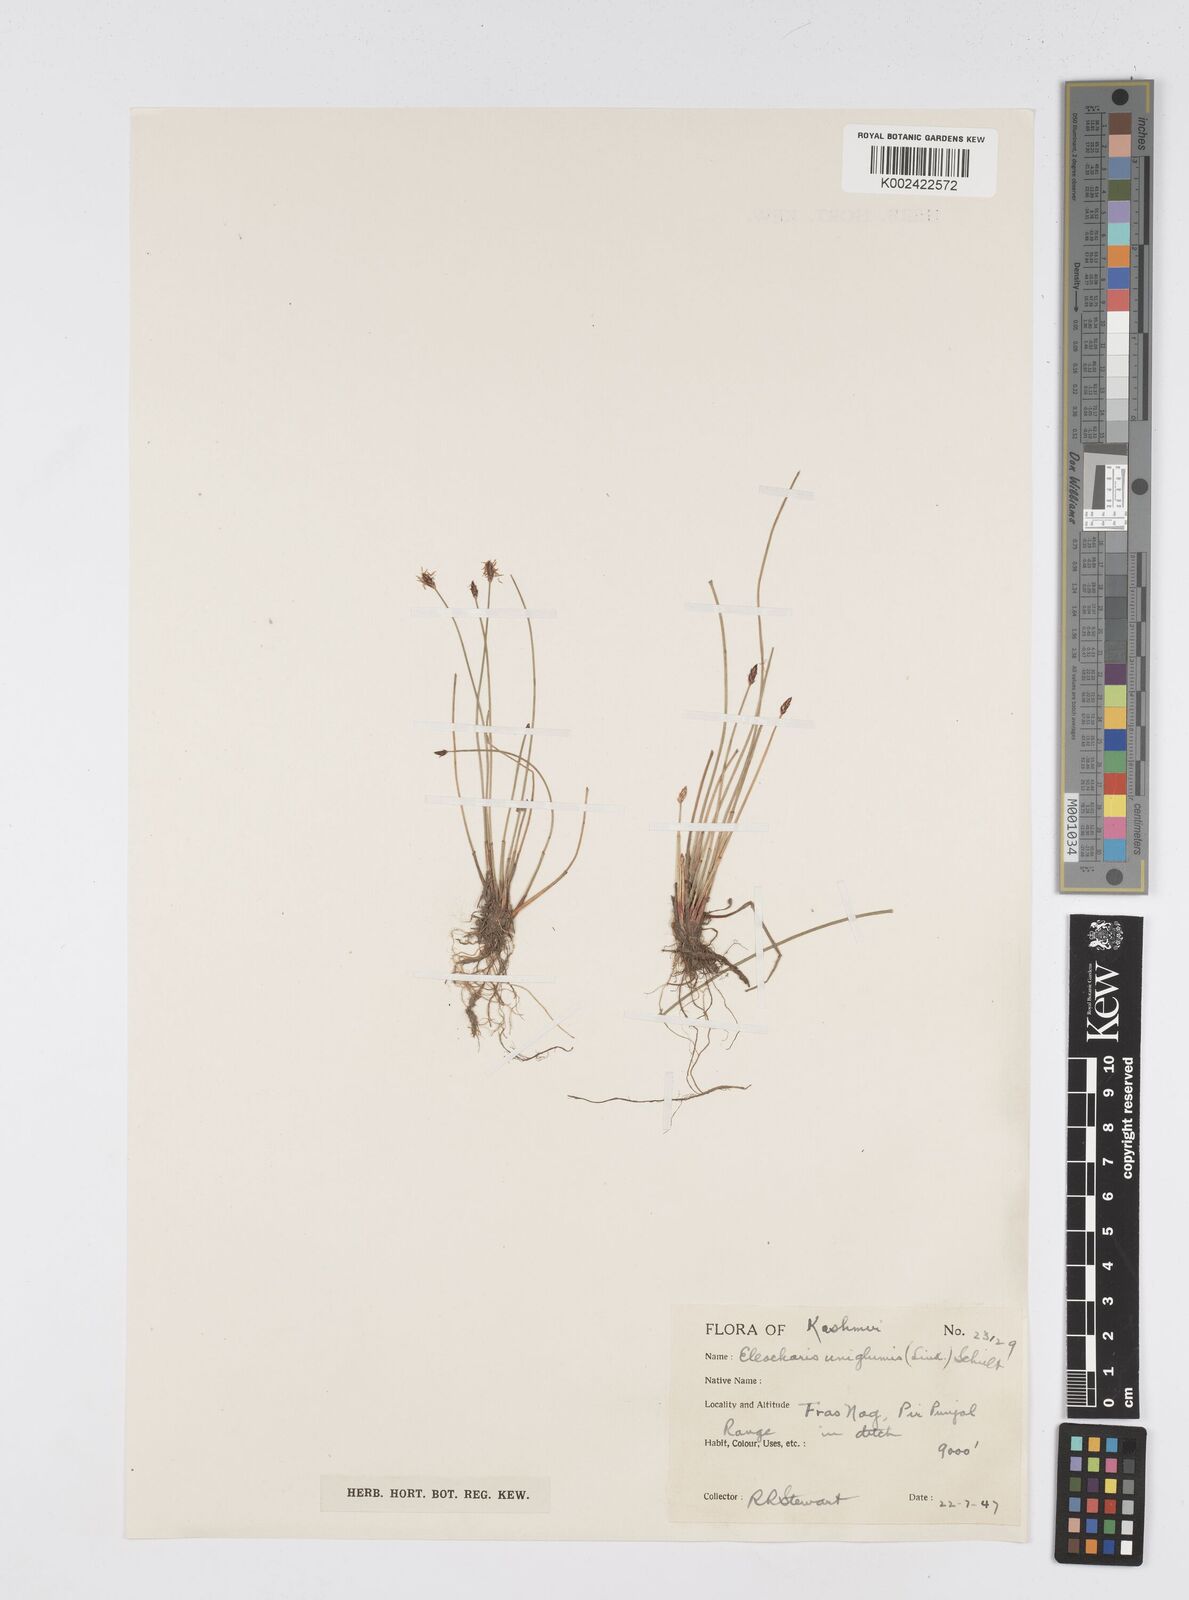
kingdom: Plantae
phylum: Tracheophyta
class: Liliopsida
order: Poales
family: Cyperaceae
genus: Eleocharis
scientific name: Eleocharis uniglumis
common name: Slender spike-rush
